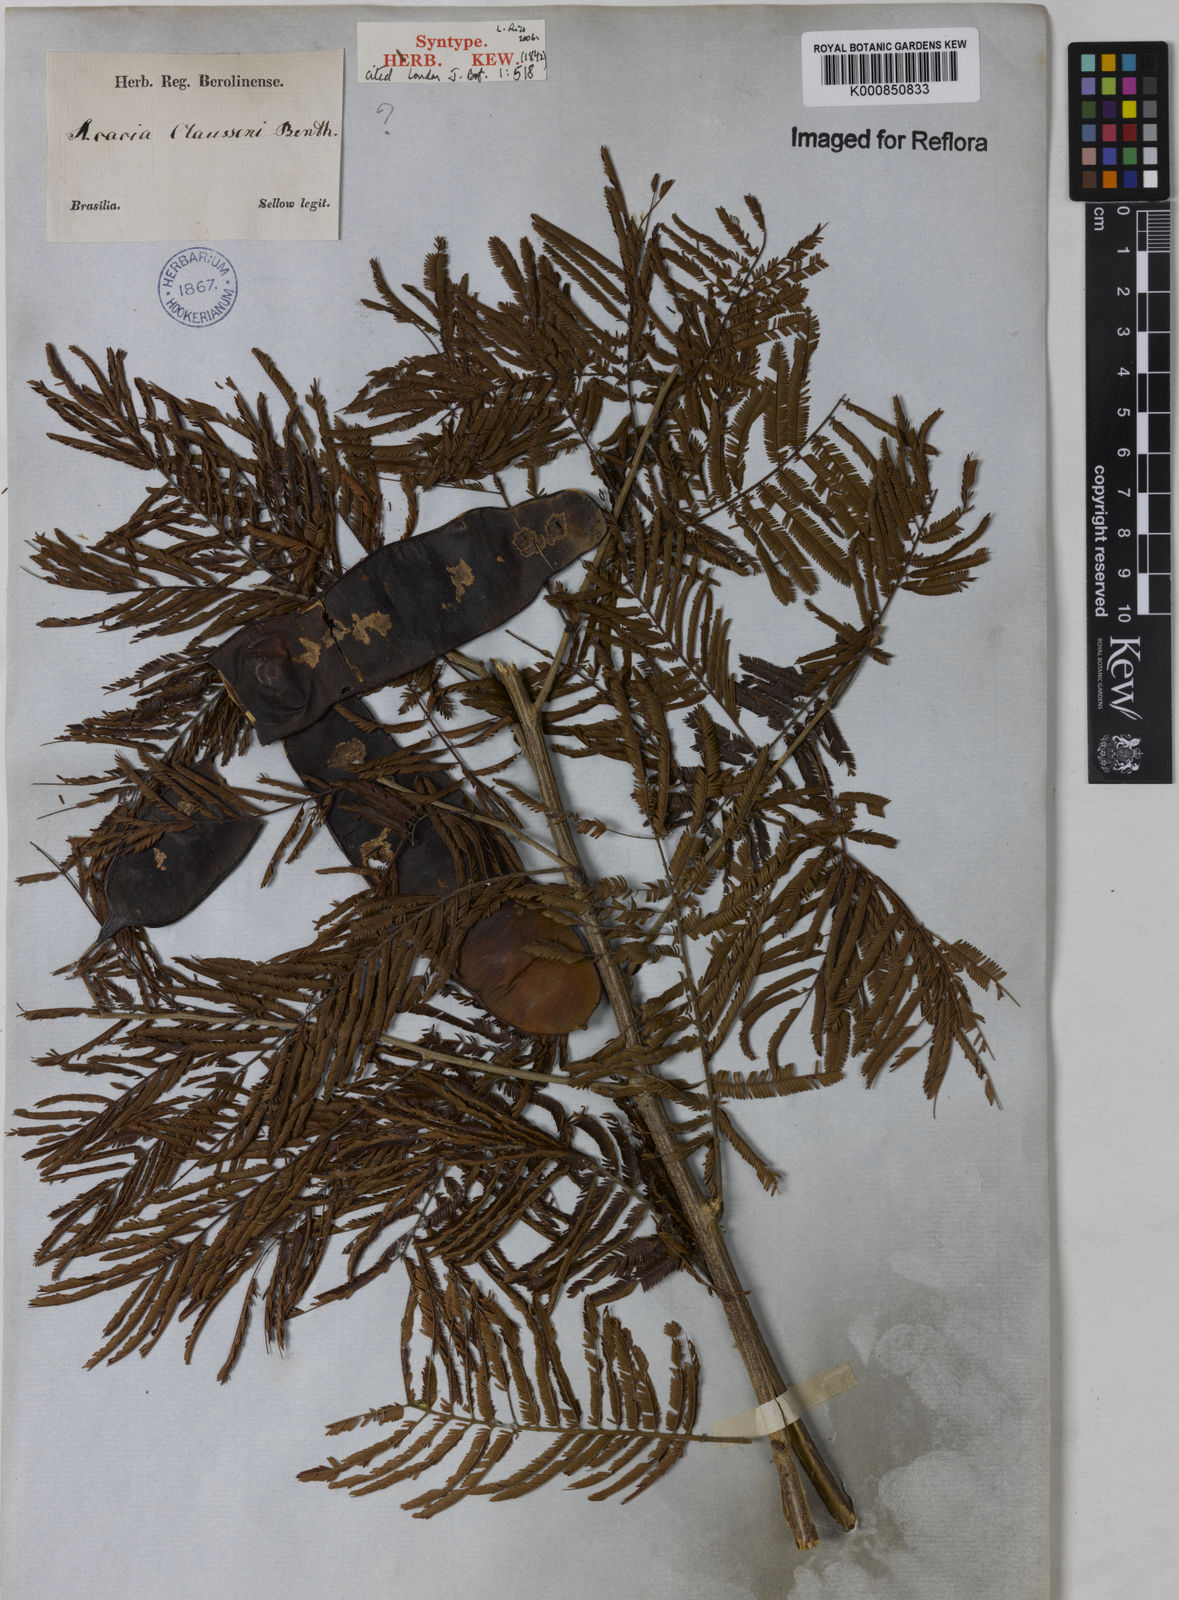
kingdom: Plantae
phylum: Tracheophyta
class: Magnoliopsida
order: Fabales
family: Fabaceae
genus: Senegalia
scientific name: Senegalia tenuifolia
